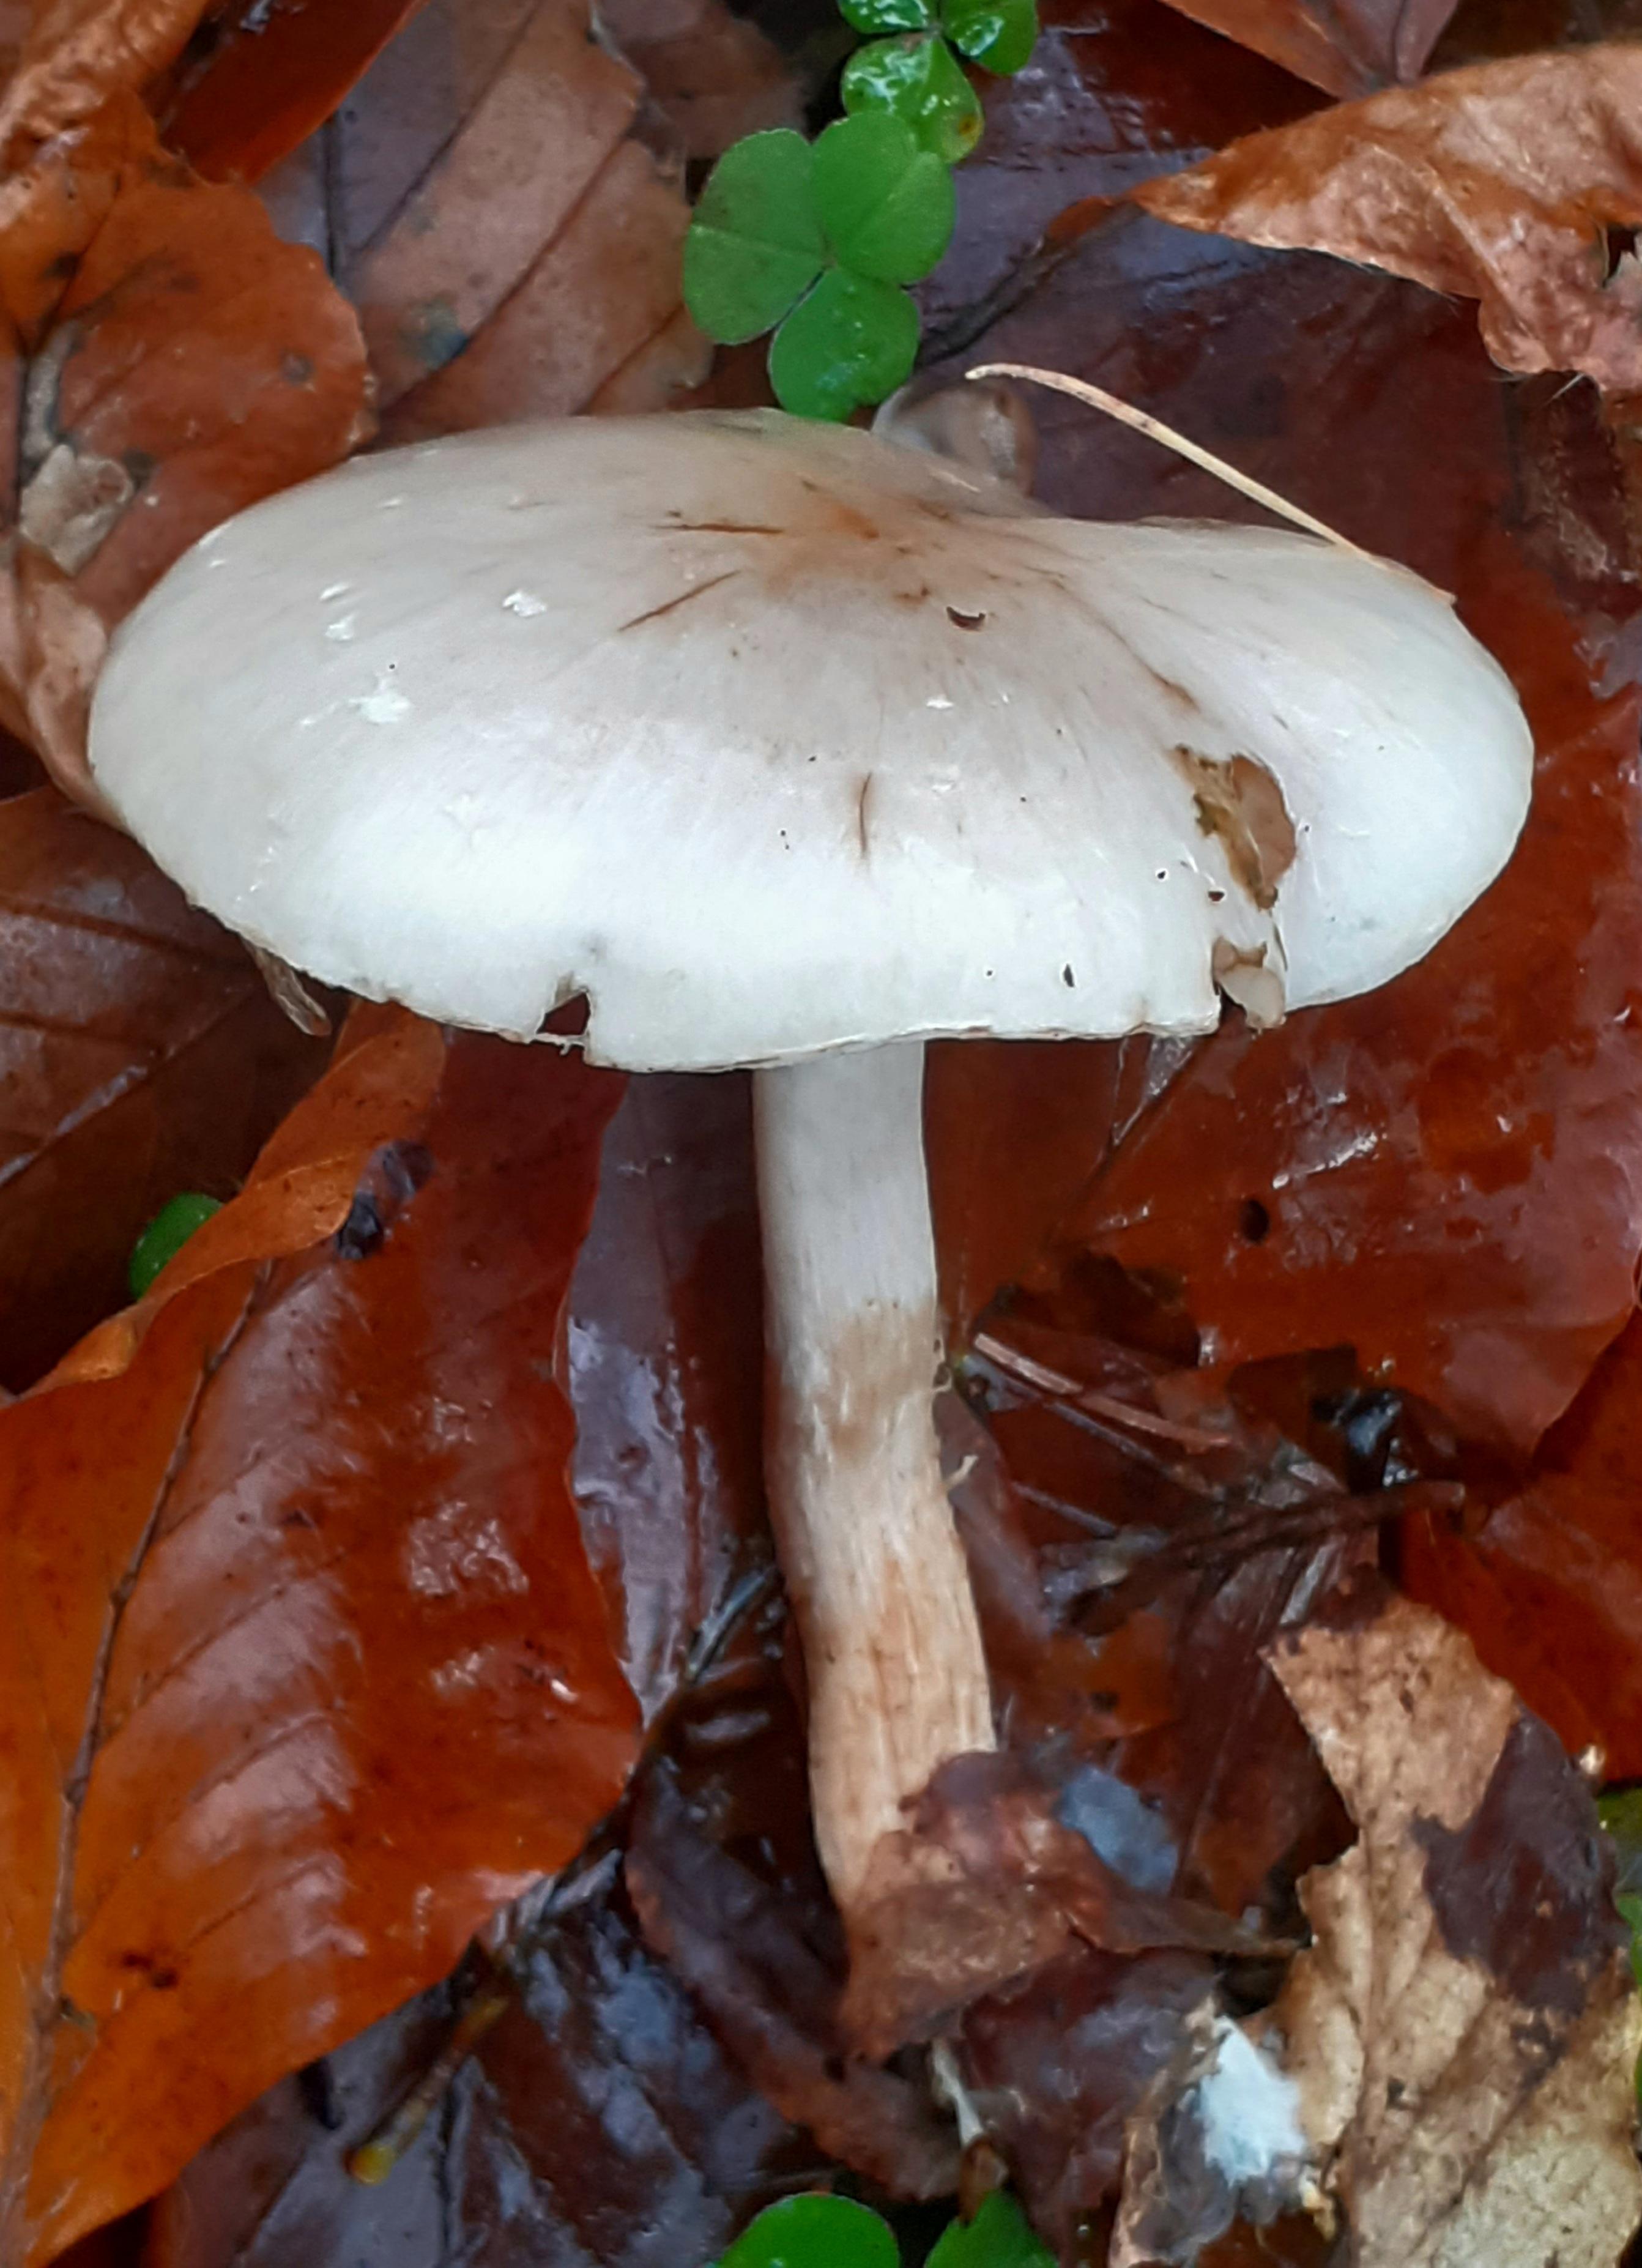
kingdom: Fungi
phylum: Basidiomycota
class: Agaricomycetes
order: Agaricales
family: Strophariaceae
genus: Pholiota
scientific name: Pholiota lenta
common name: løv-skælhat
